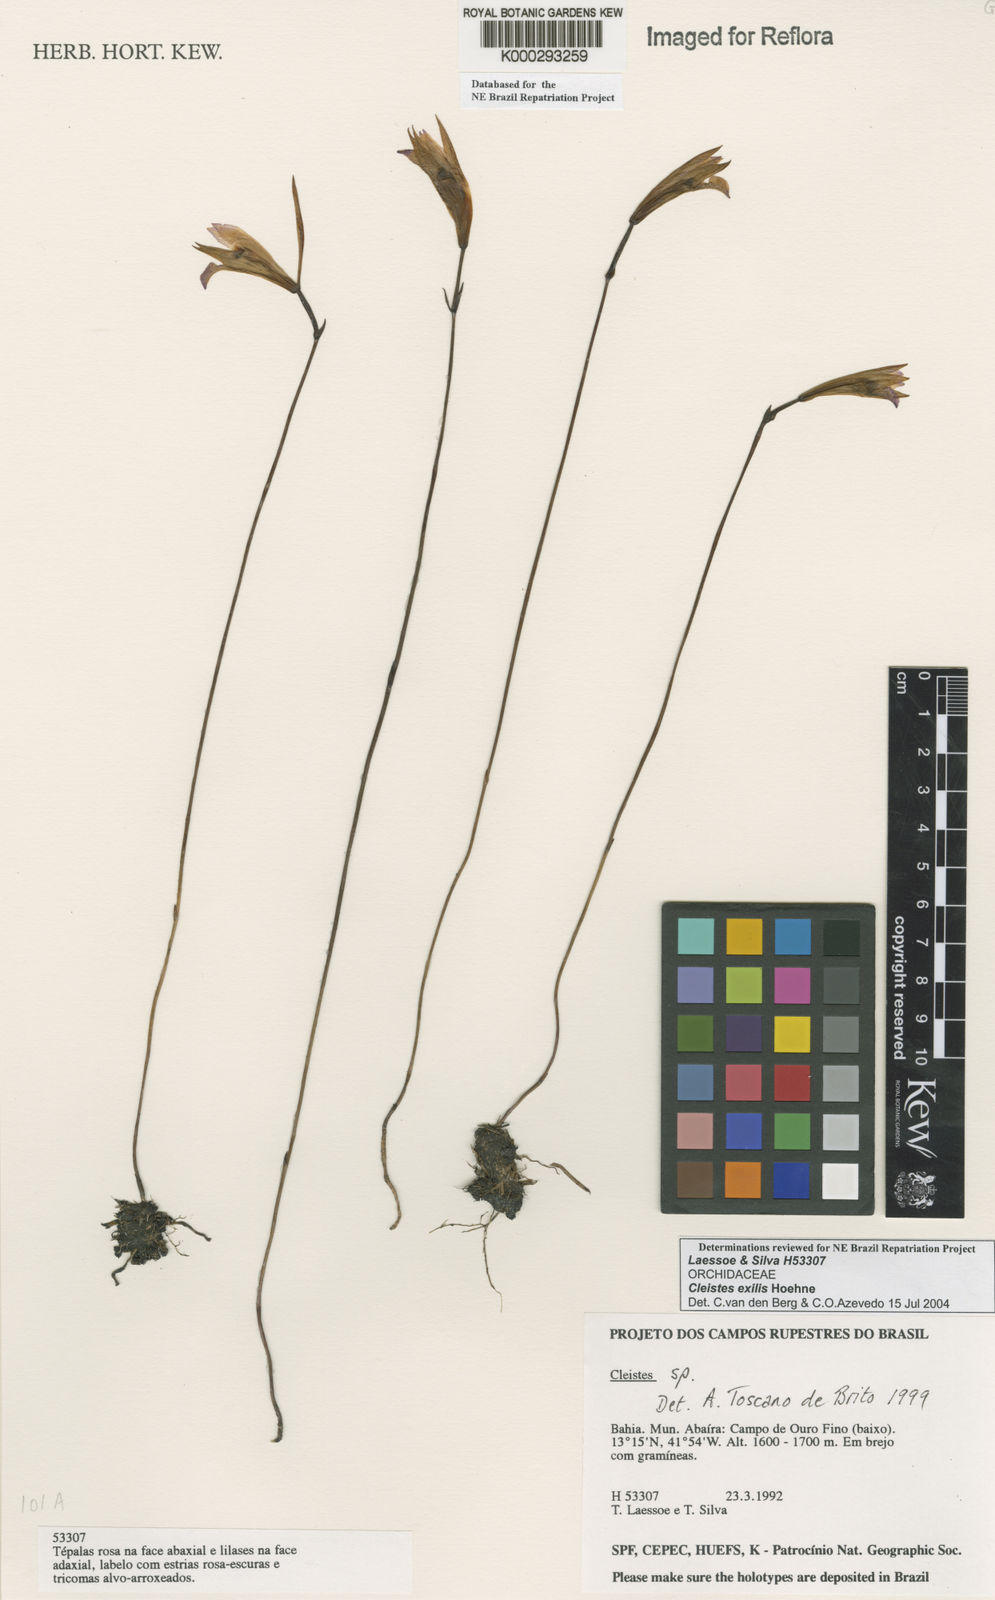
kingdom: Plantae
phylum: Tracheophyta
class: Liliopsida
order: Asparagales
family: Orchidaceae
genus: Cleistes
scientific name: Cleistes exilis
